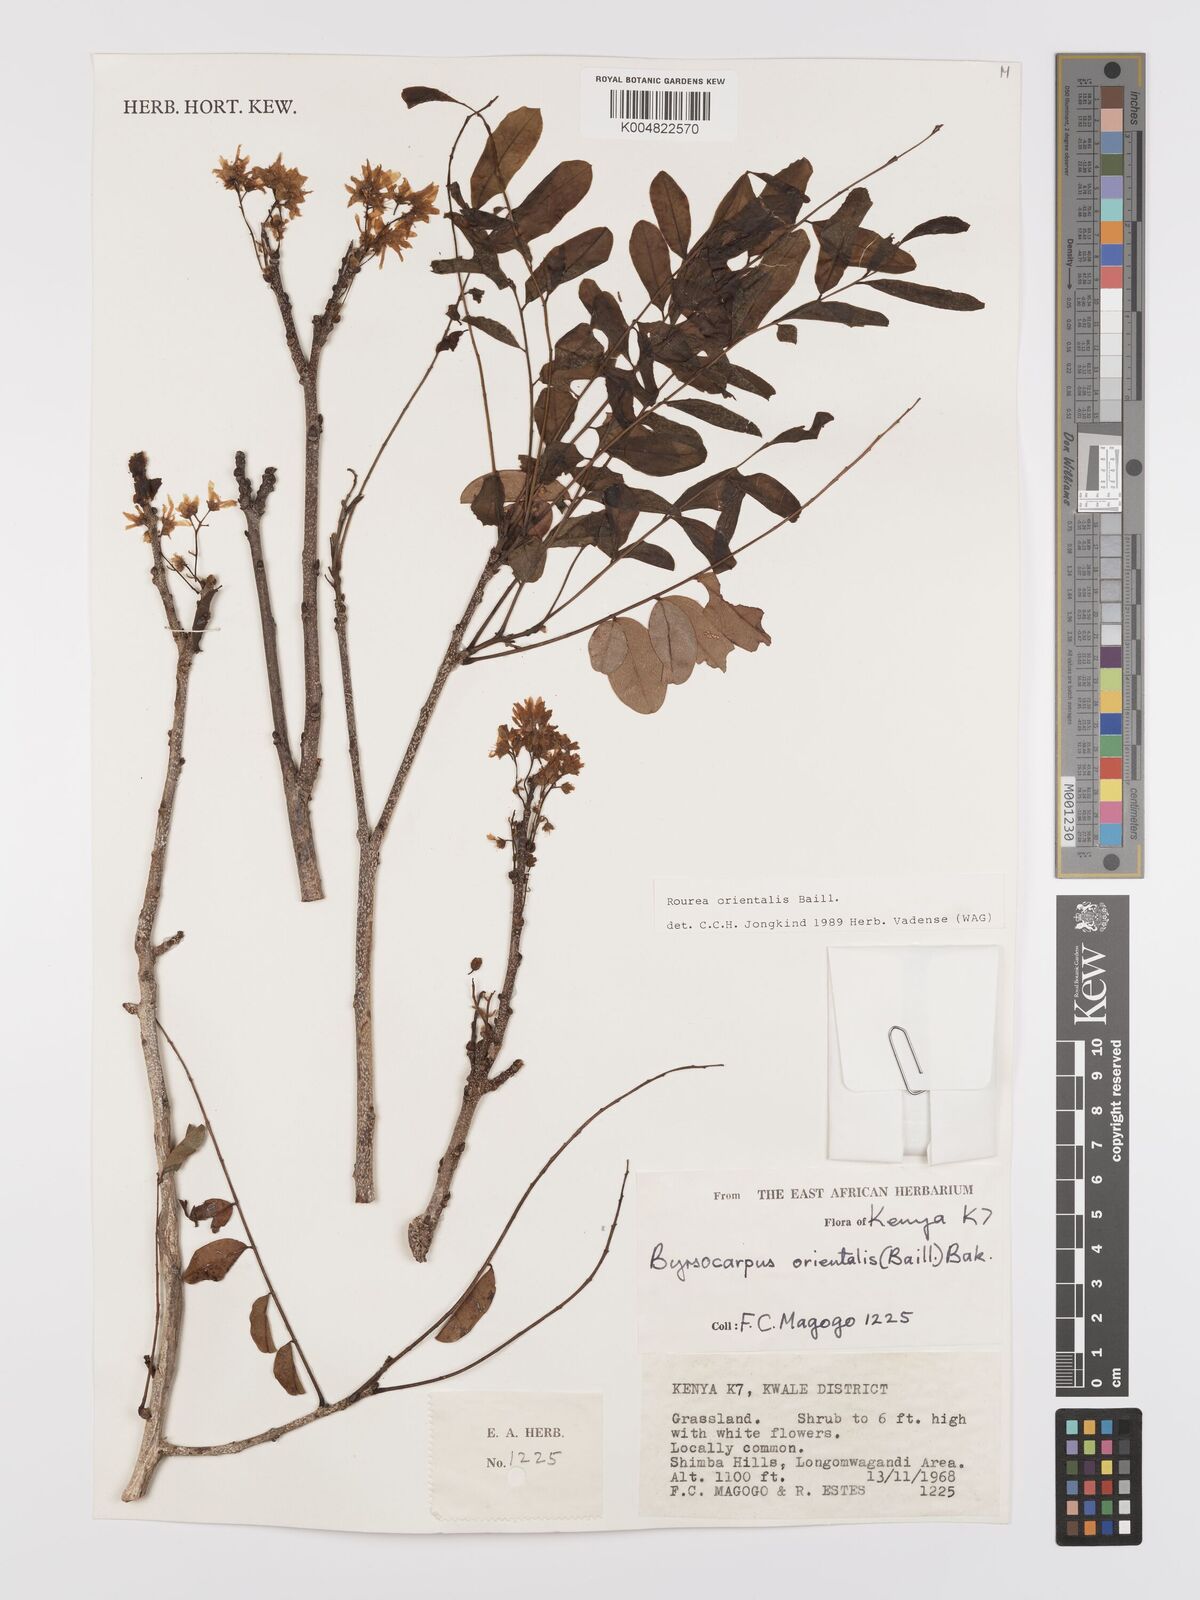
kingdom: Plantae
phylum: Tracheophyta
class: Magnoliopsida
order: Oxalidales
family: Connaraceae
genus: Rourea
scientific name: Rourea orientalis
